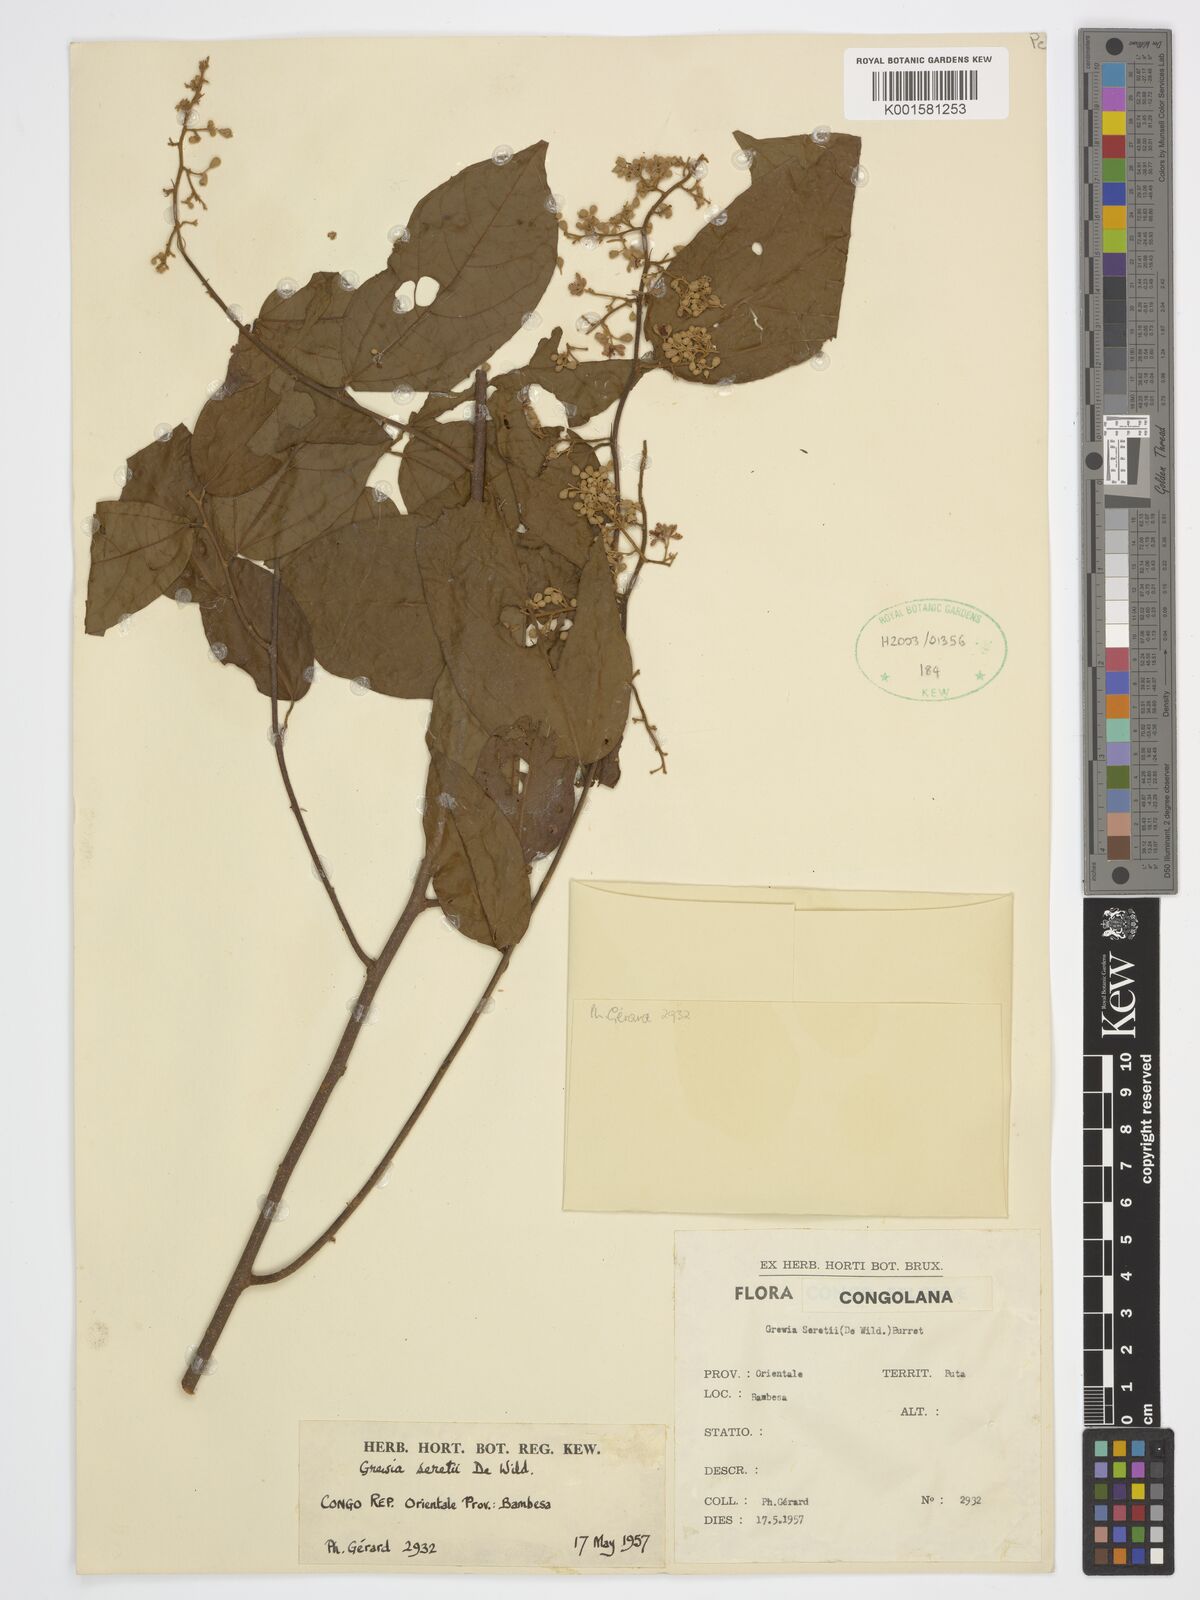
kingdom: Plantae
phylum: Tracheophyta
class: Magnoliopsida
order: Malvales
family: Malvaceae
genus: Microcos
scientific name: Microcos seretii
